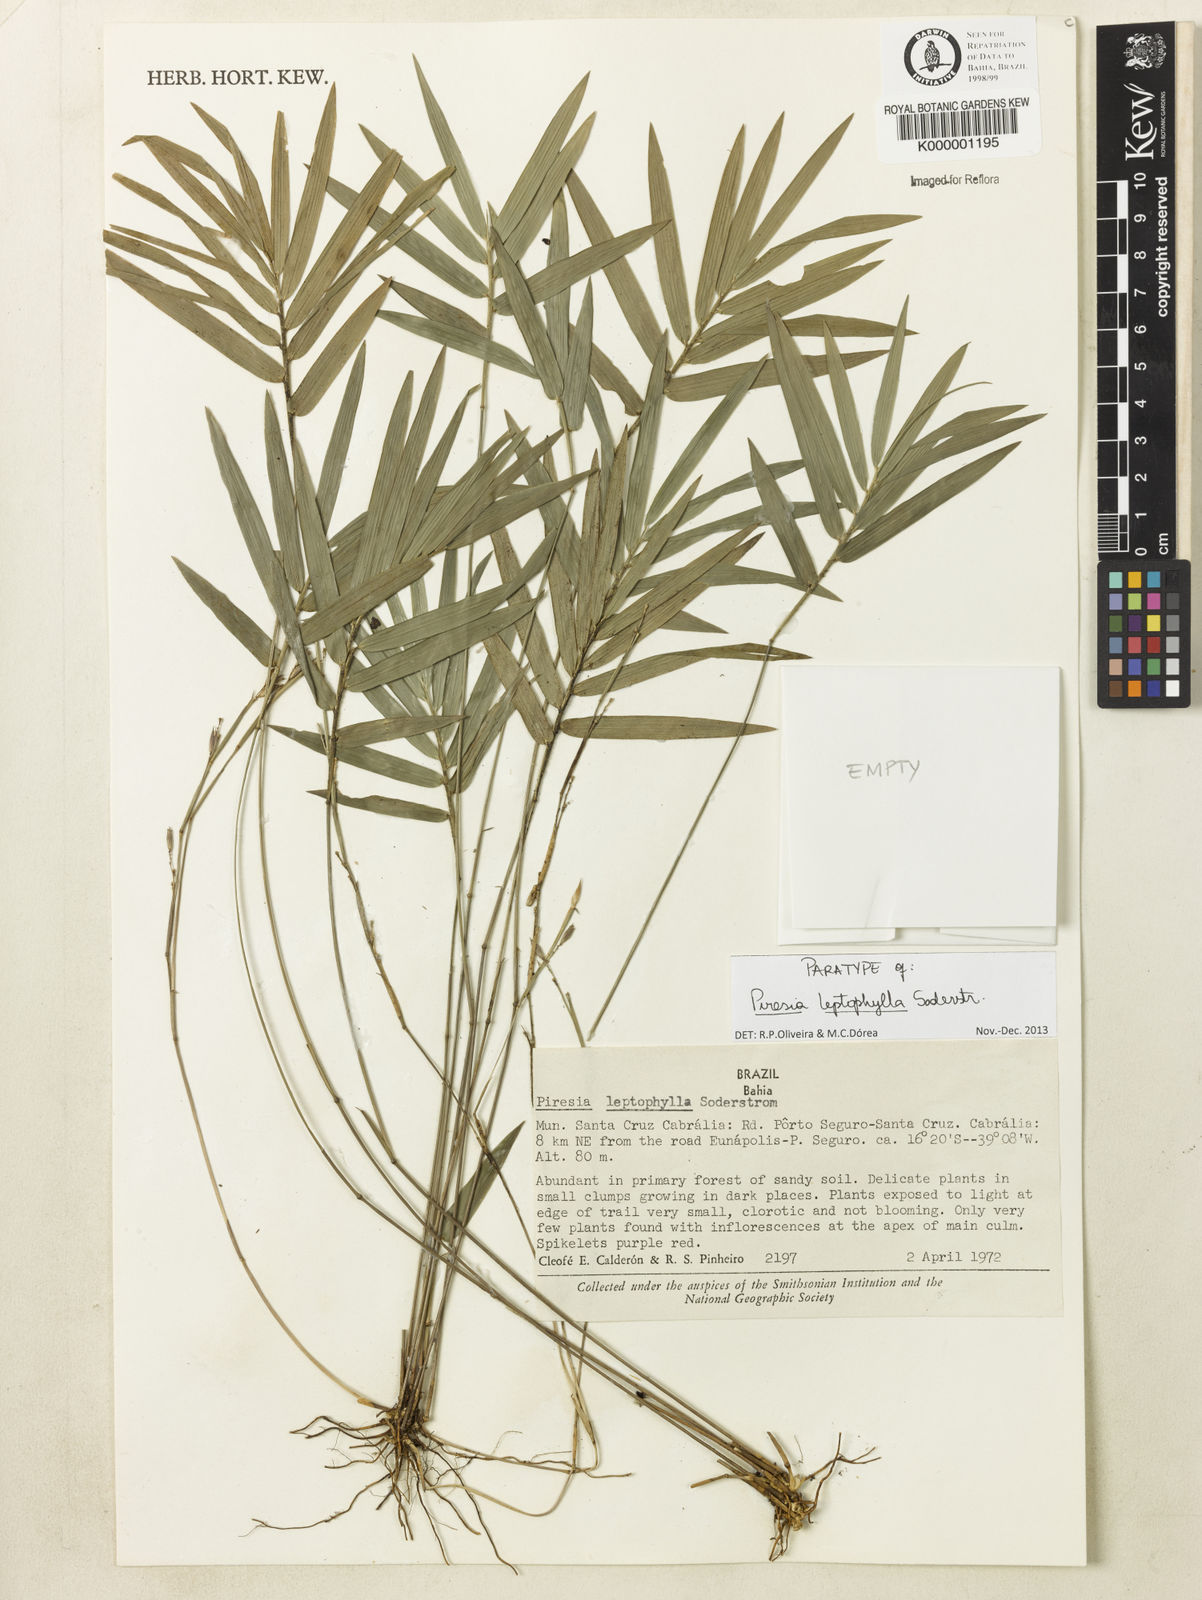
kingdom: Plantae
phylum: Tracheophyta
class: Liliopsida
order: Poales
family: Poaceae
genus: Piresia
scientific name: Piresia leptophylla
